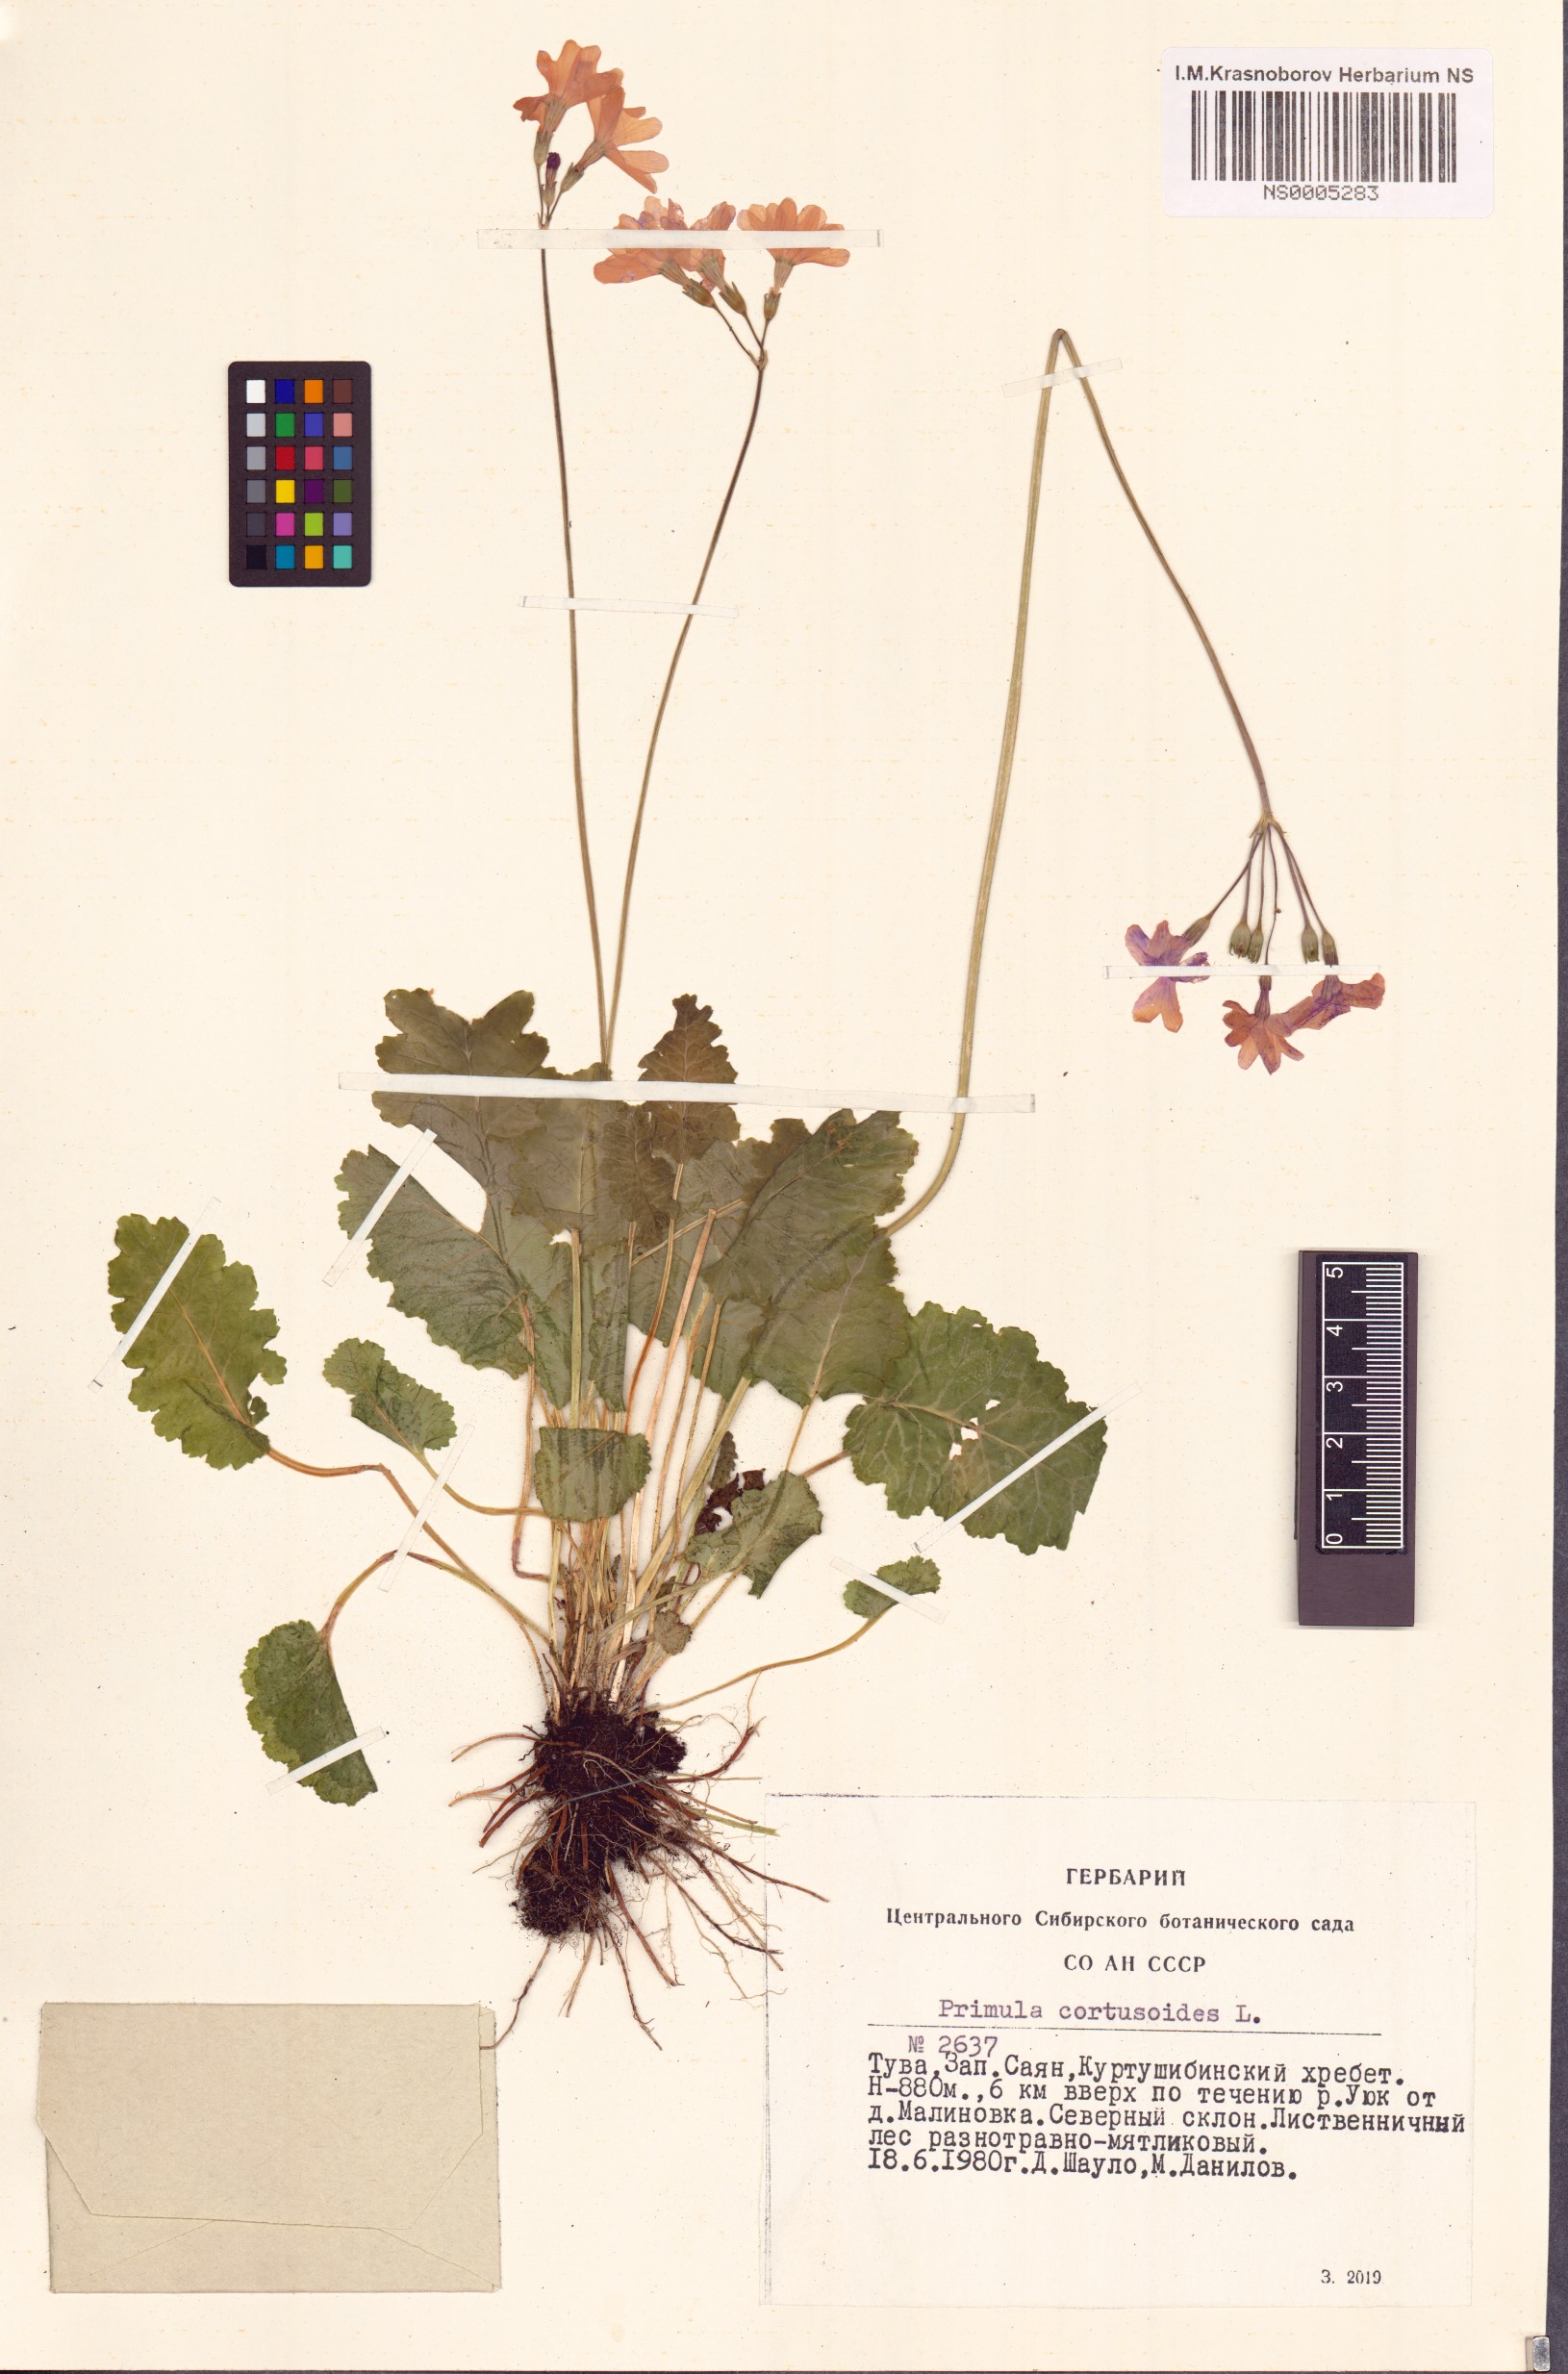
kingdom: Plantae
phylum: Tracheophyta
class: Magnoliopsida
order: Ericales
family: Primulaceae
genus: Primula
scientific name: Primula cortusoides
